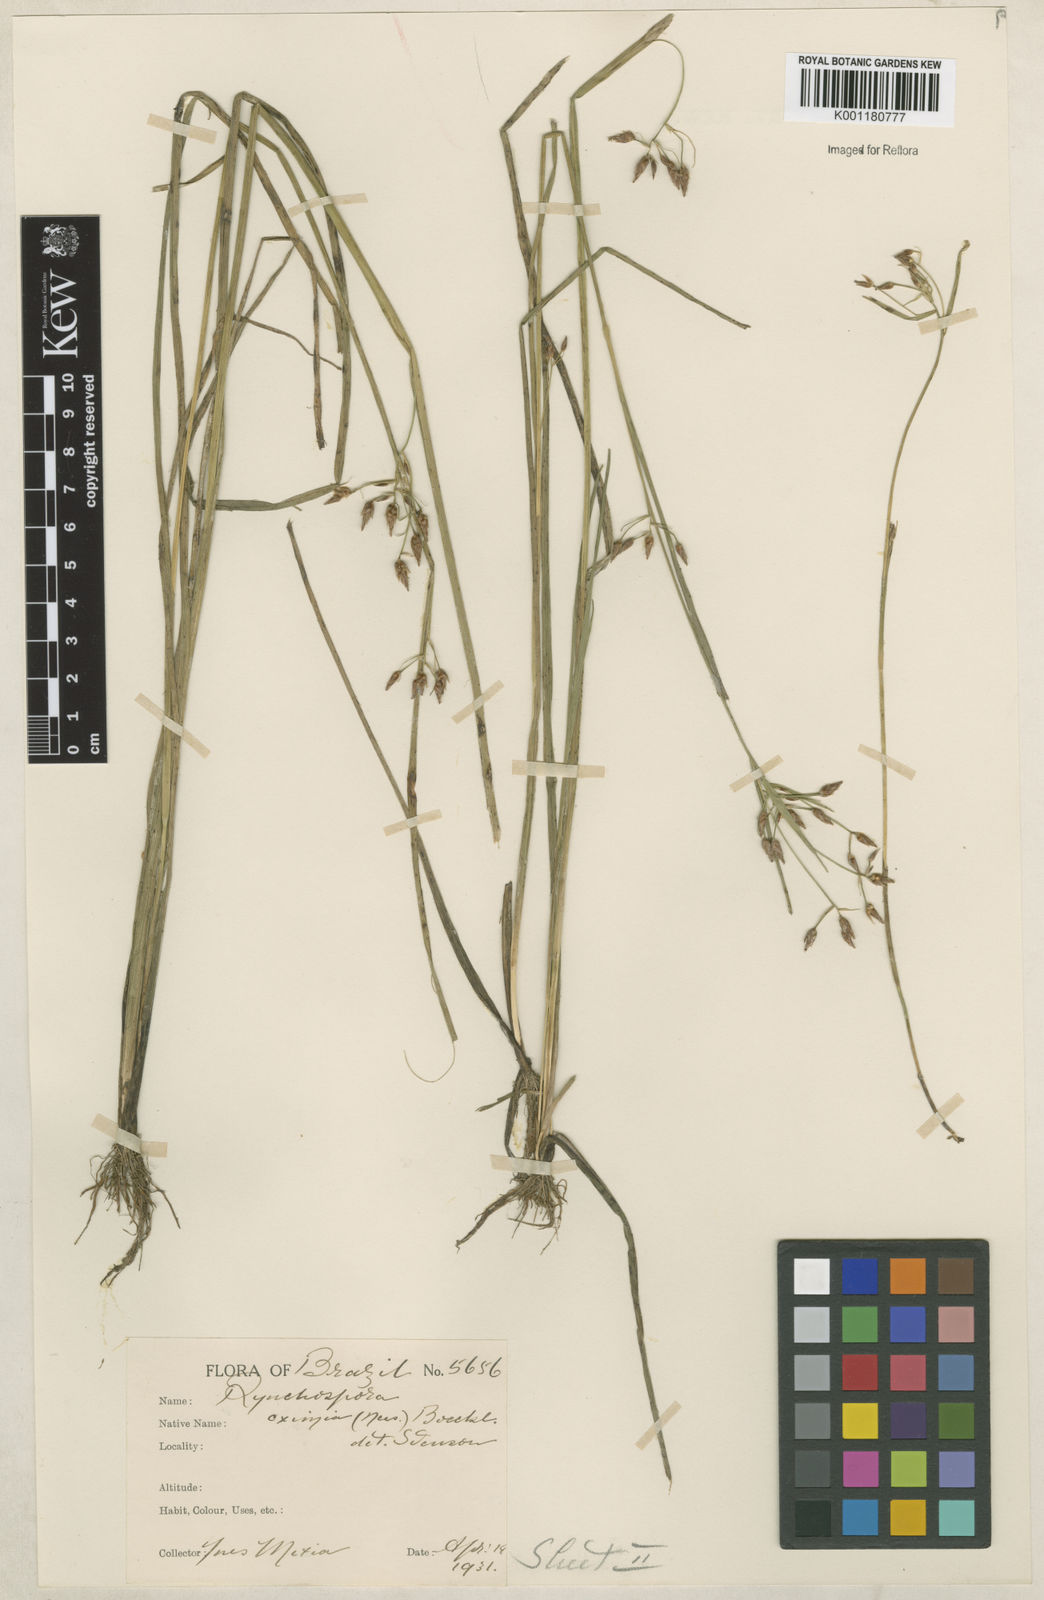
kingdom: Plantae
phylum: Tracheophyta
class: Liliopsida
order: Poales
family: Cyperaceae
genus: Rhynchospora
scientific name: Rhynchospora eximia
